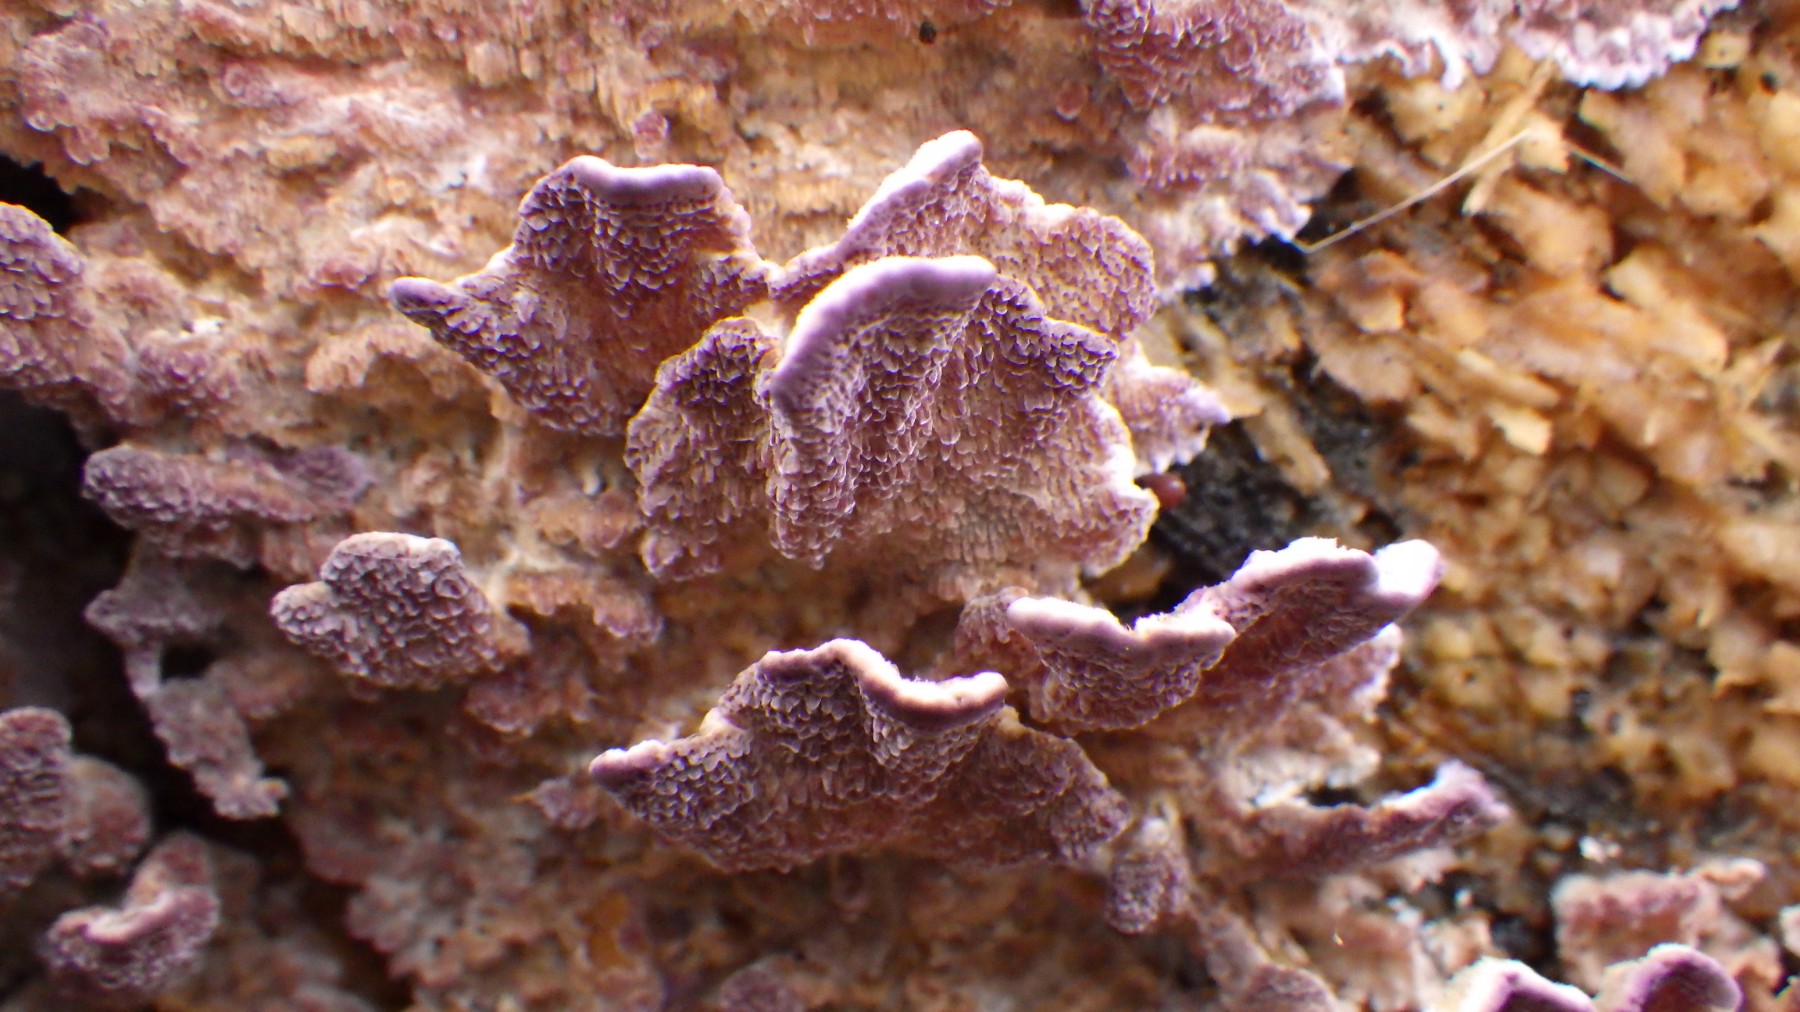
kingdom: Fungi
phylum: Basidiomycota
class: Agaricomycetes
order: Hymenochaetales
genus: Trichaptum
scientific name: Trichaptum fuscoviolaceum
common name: tandet violporesvamp
